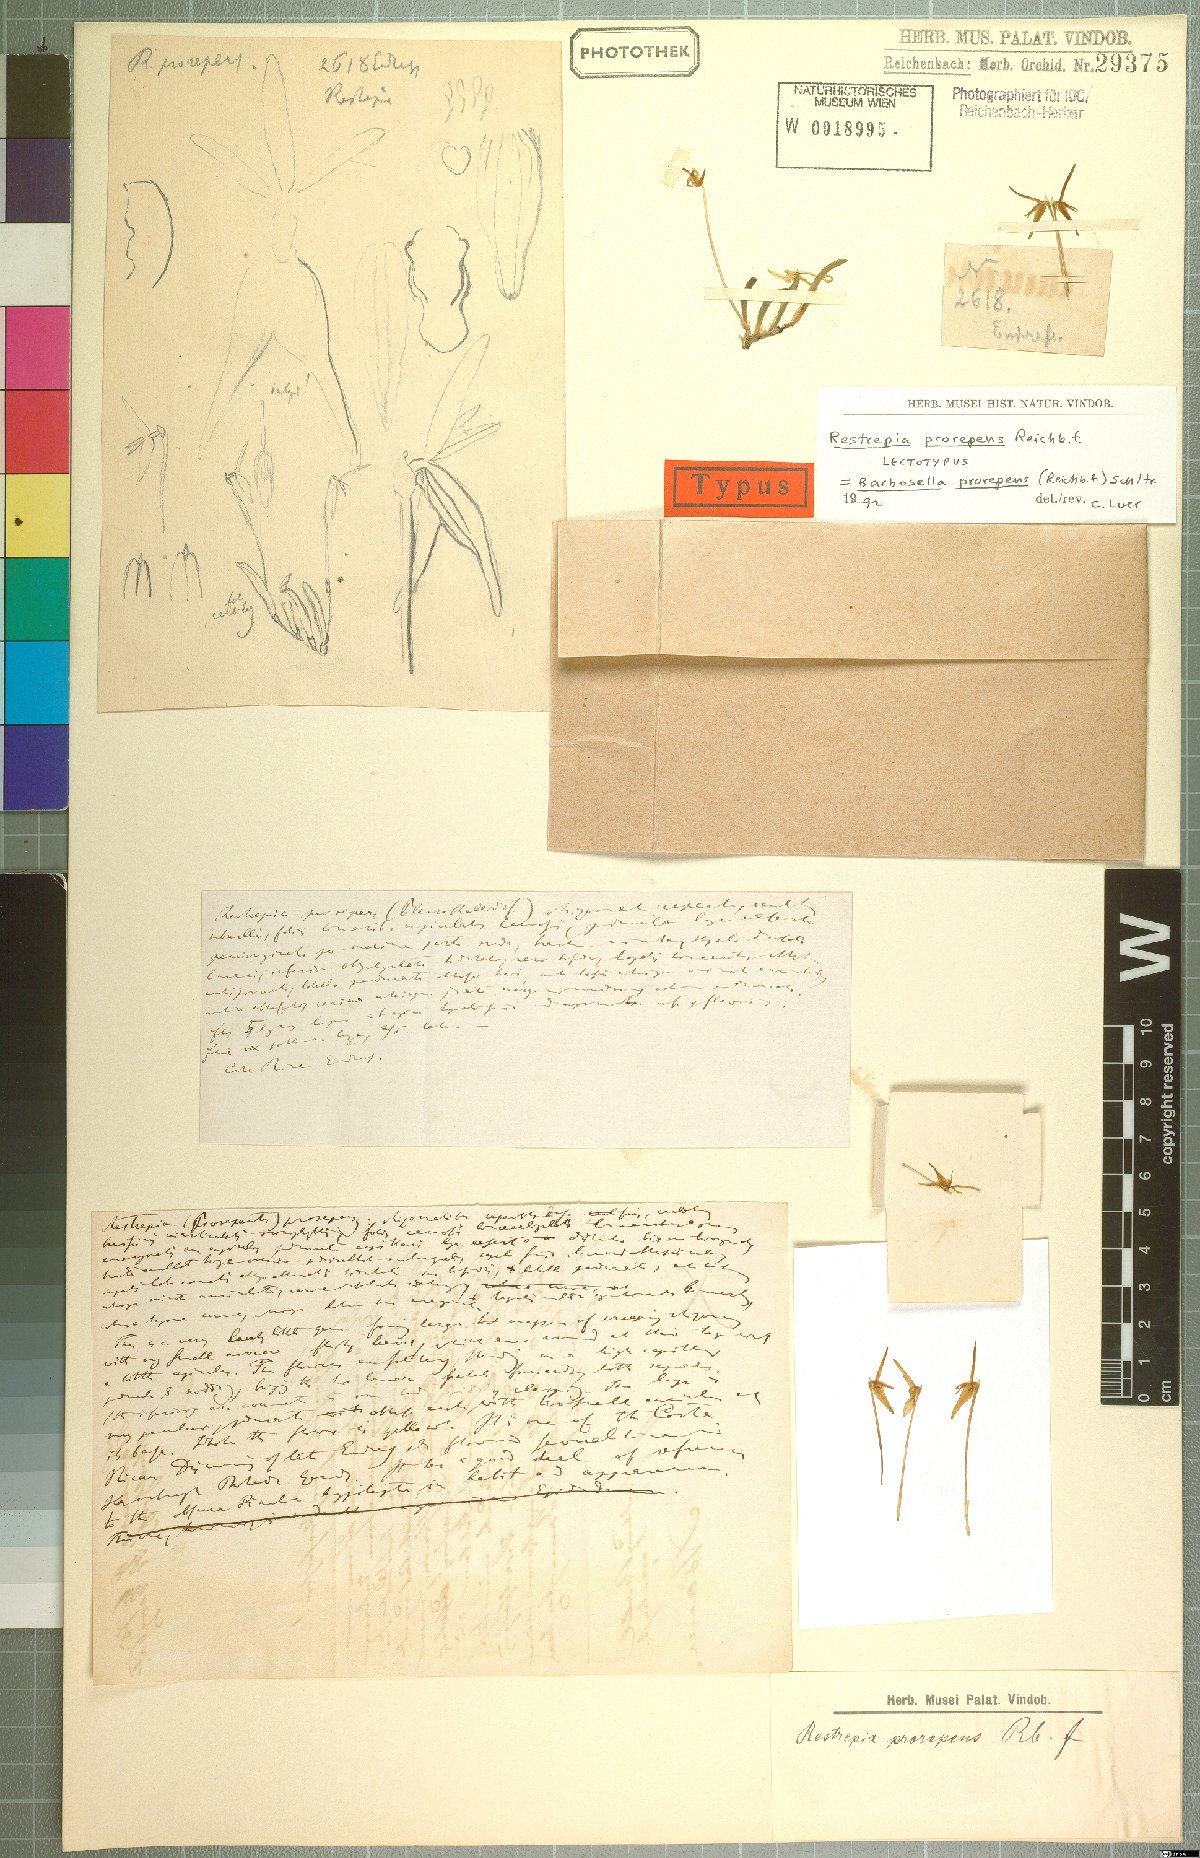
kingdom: Plantae
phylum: Tracheophyta
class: Liliopsida
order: Asparagales
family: Orchidaceae
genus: Barbosella
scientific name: Barbosella prorepens
